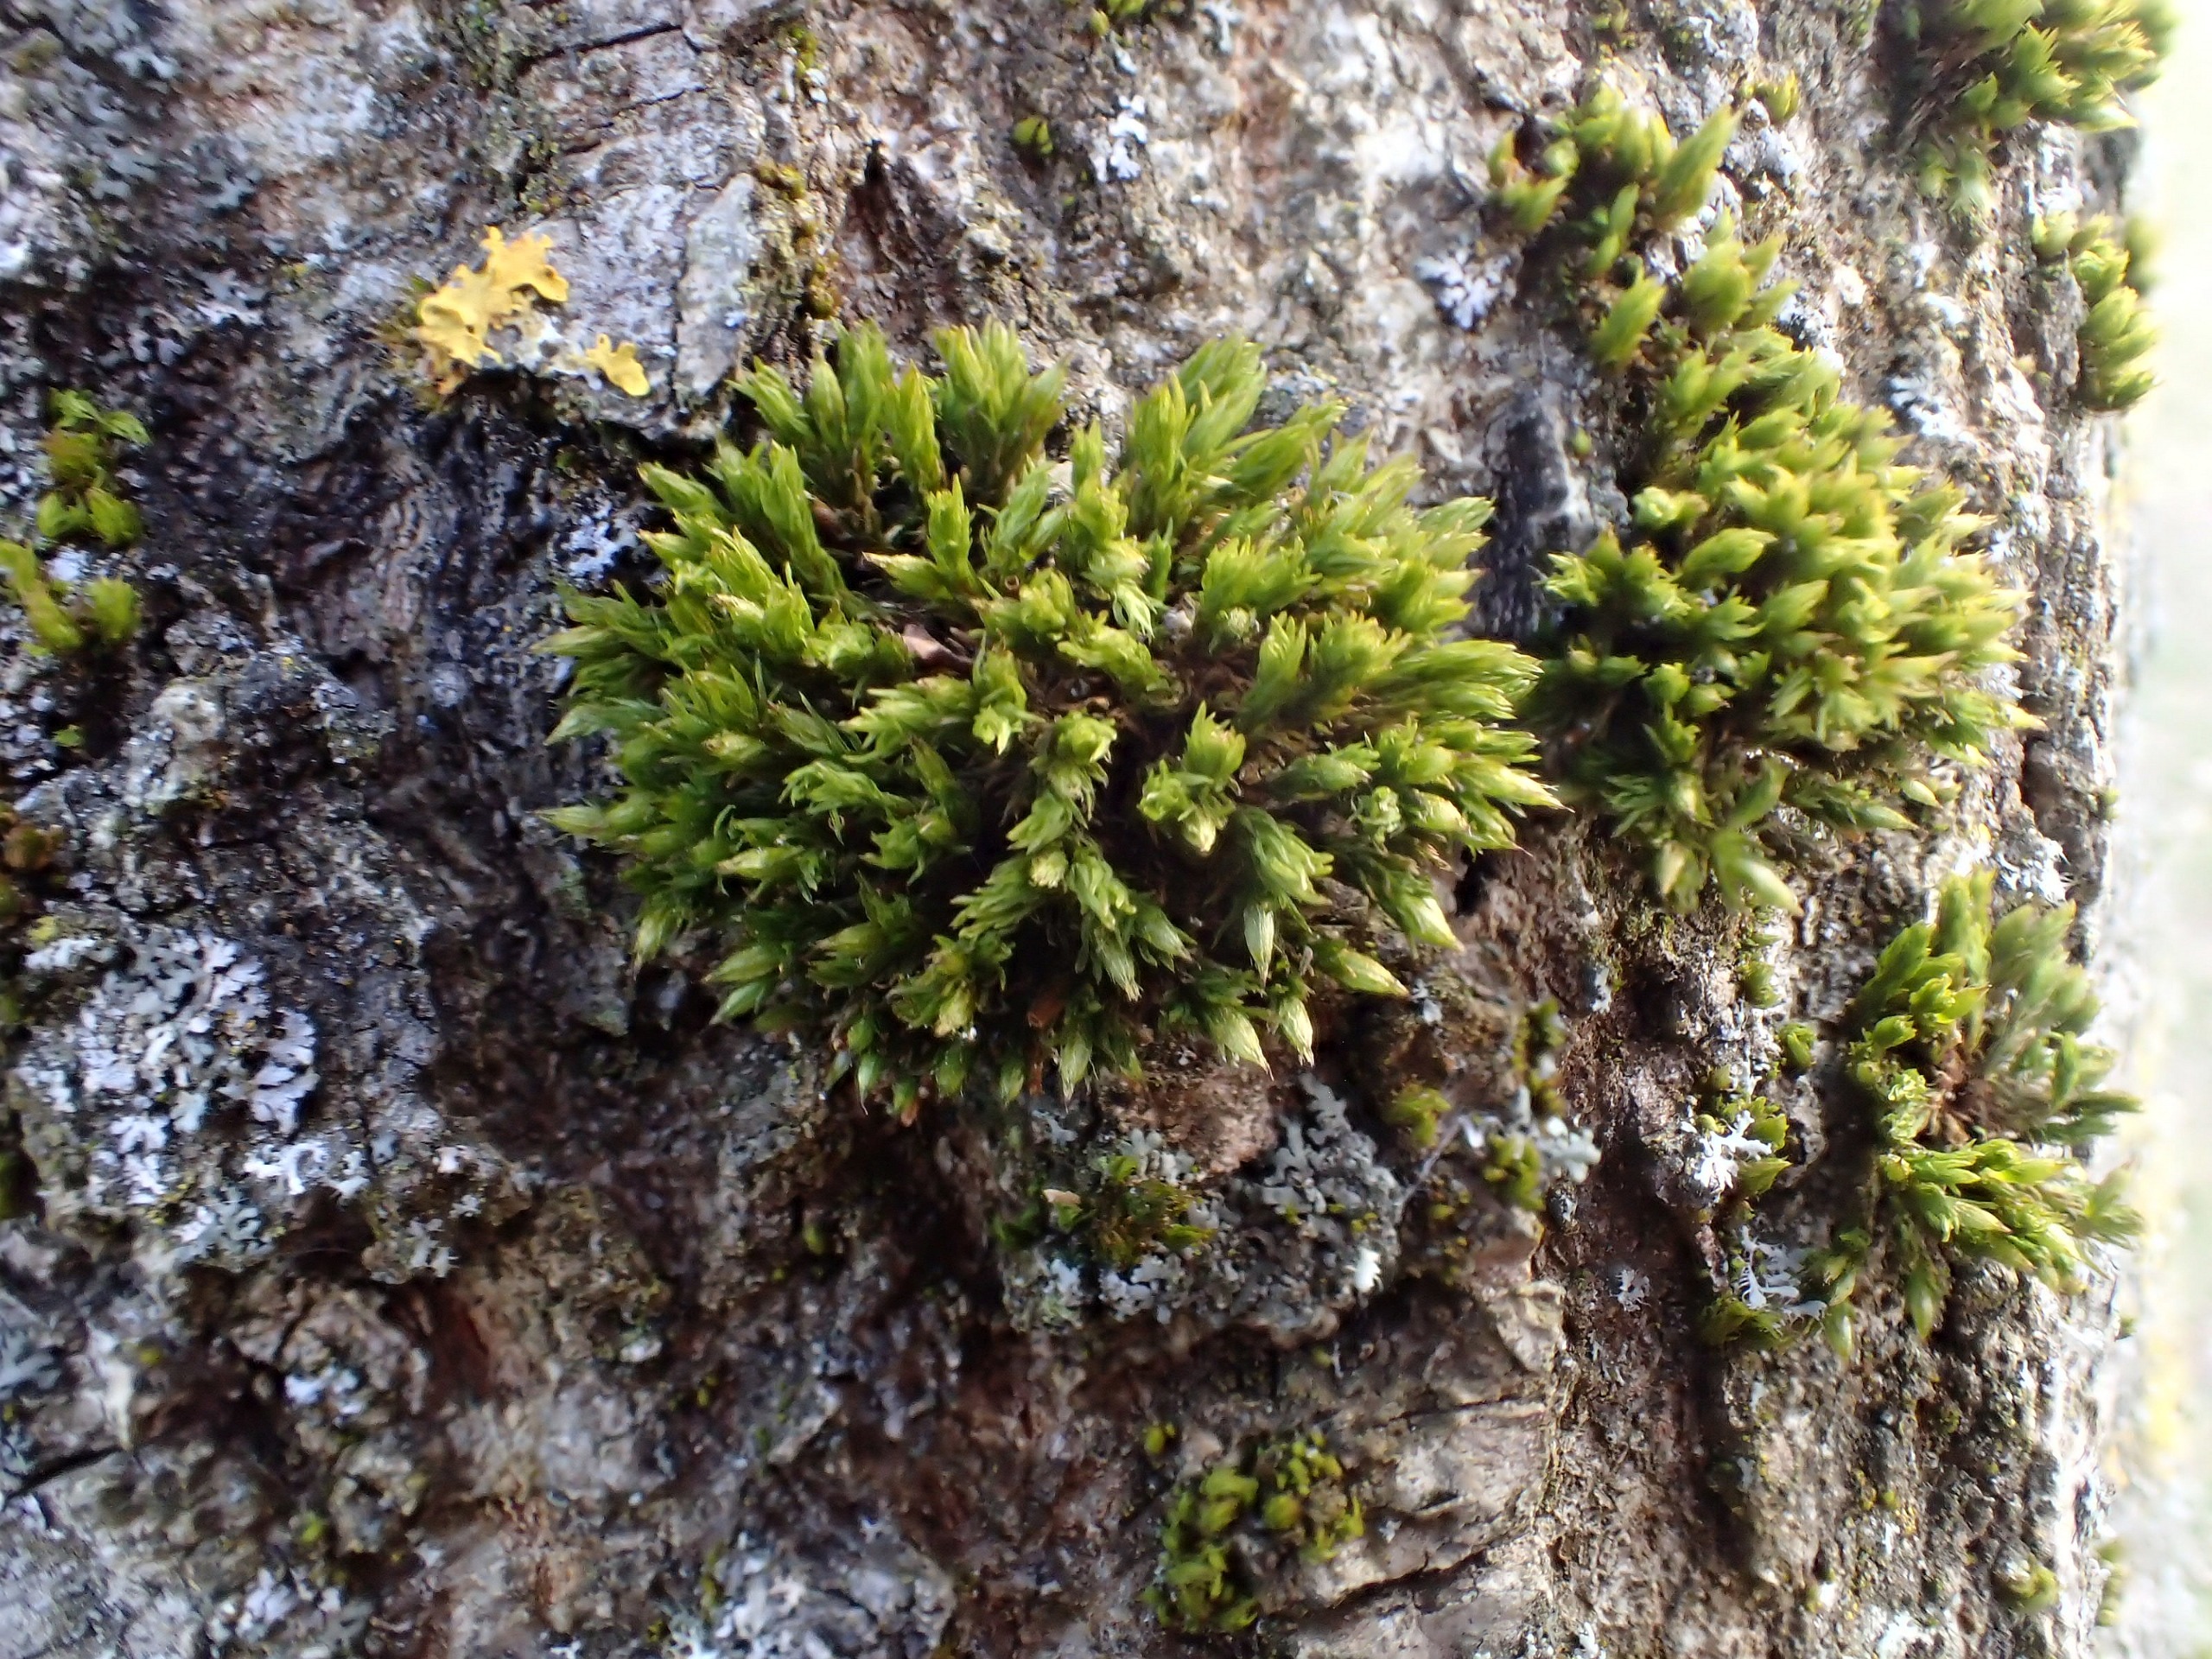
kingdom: Plantae
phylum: Bryophyta
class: Bryopsida
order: Orthotrichales
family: Orthotrichaceae
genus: Orthotrichum
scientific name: Orthotrichum
